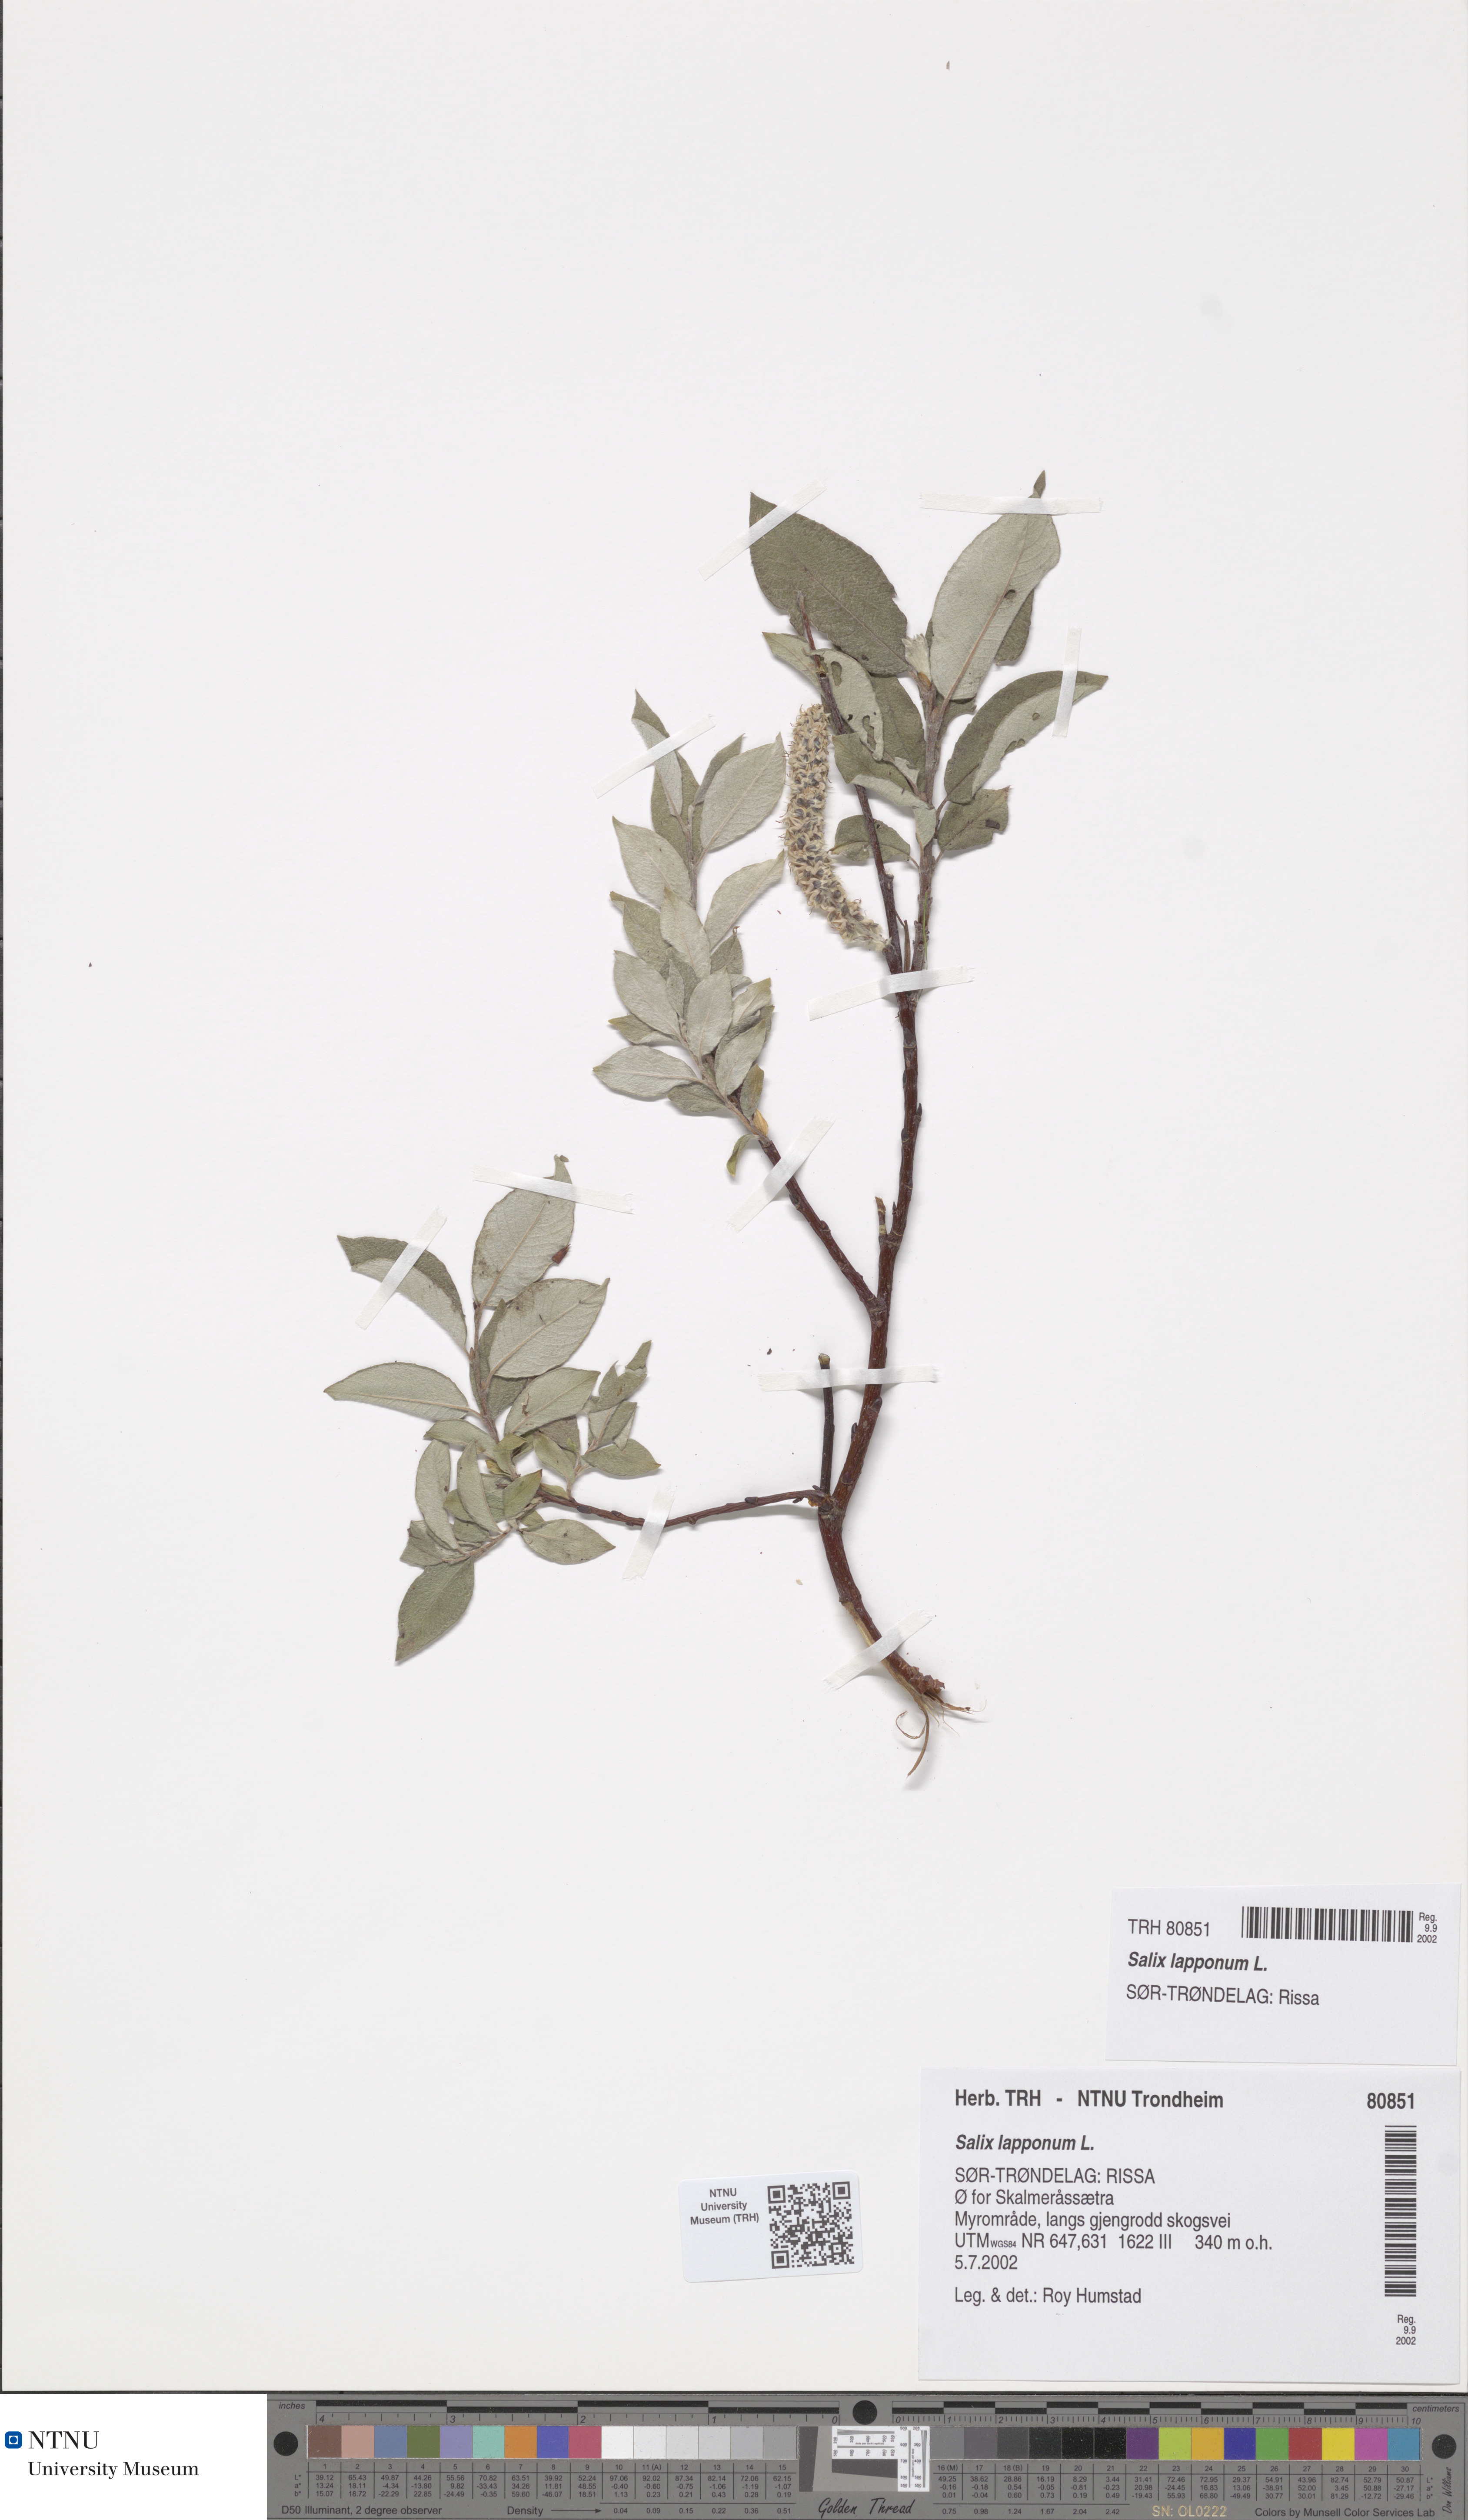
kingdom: Plantae
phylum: Tracheophyta
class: Magnoliopsida
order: Malpighiales
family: Salicaceae
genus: Salix
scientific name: Salix lapponum
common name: Downy willow
